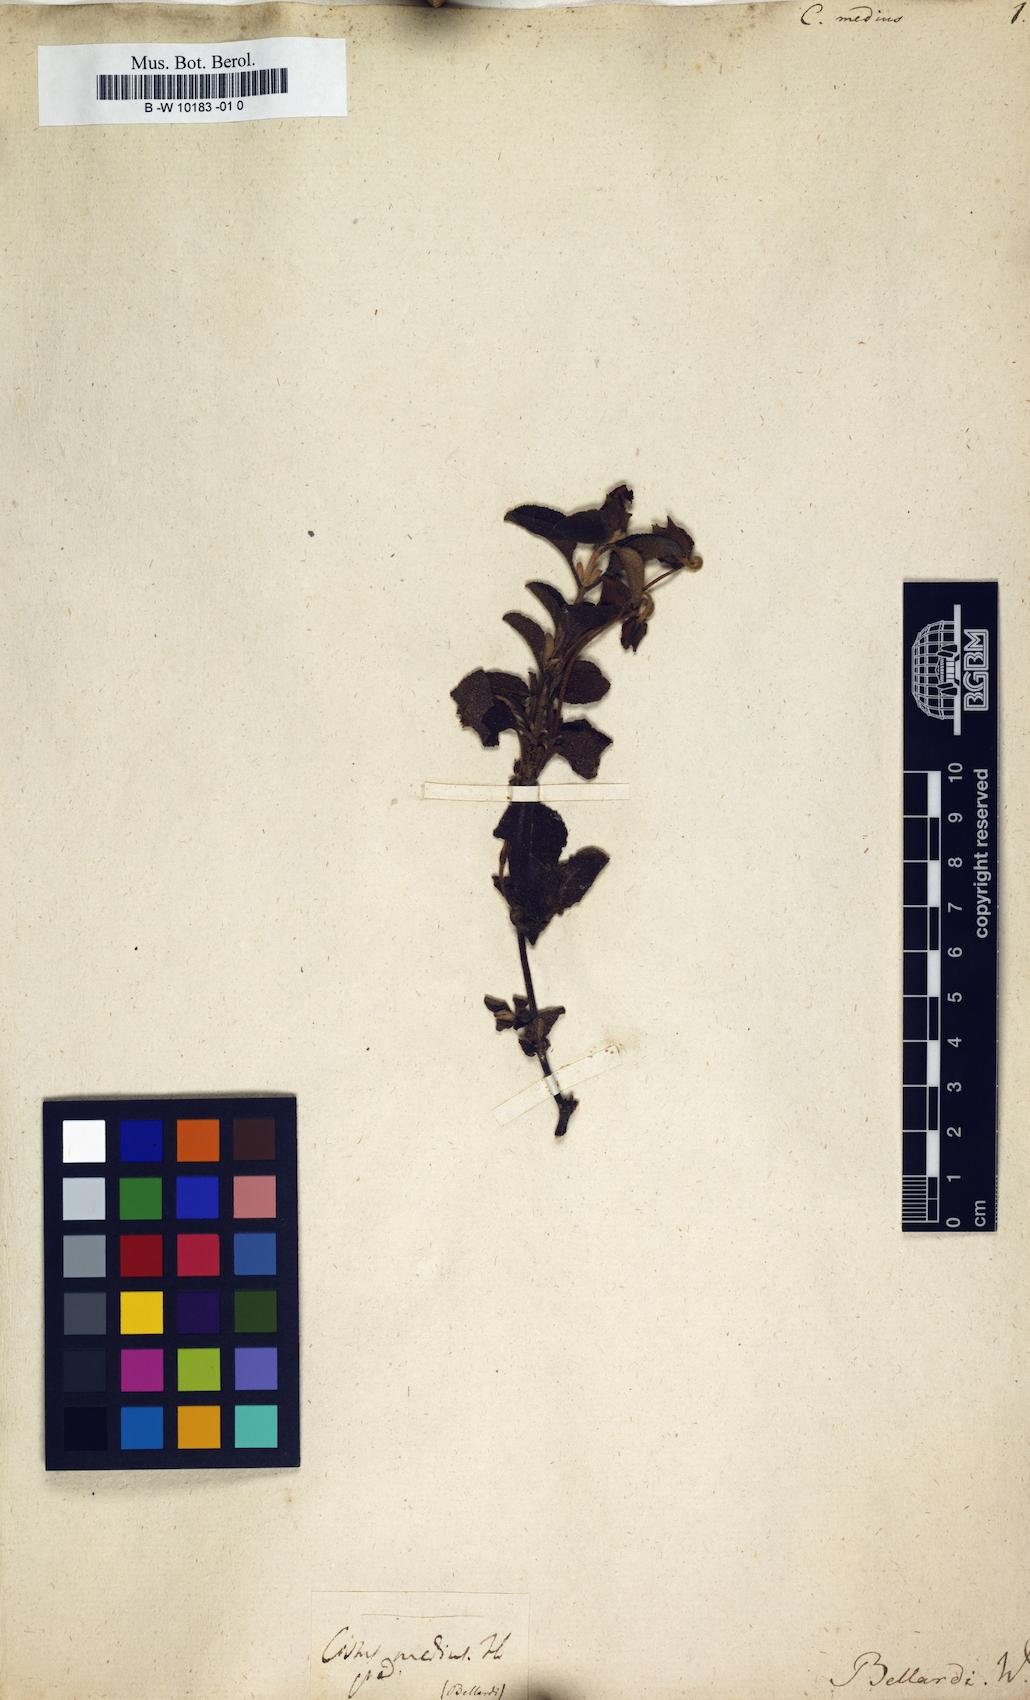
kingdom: Plantae
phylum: Tracheophyta
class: Magnoliopsida
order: Malvales
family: Cistaceae
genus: Cistus
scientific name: Cistus medius
